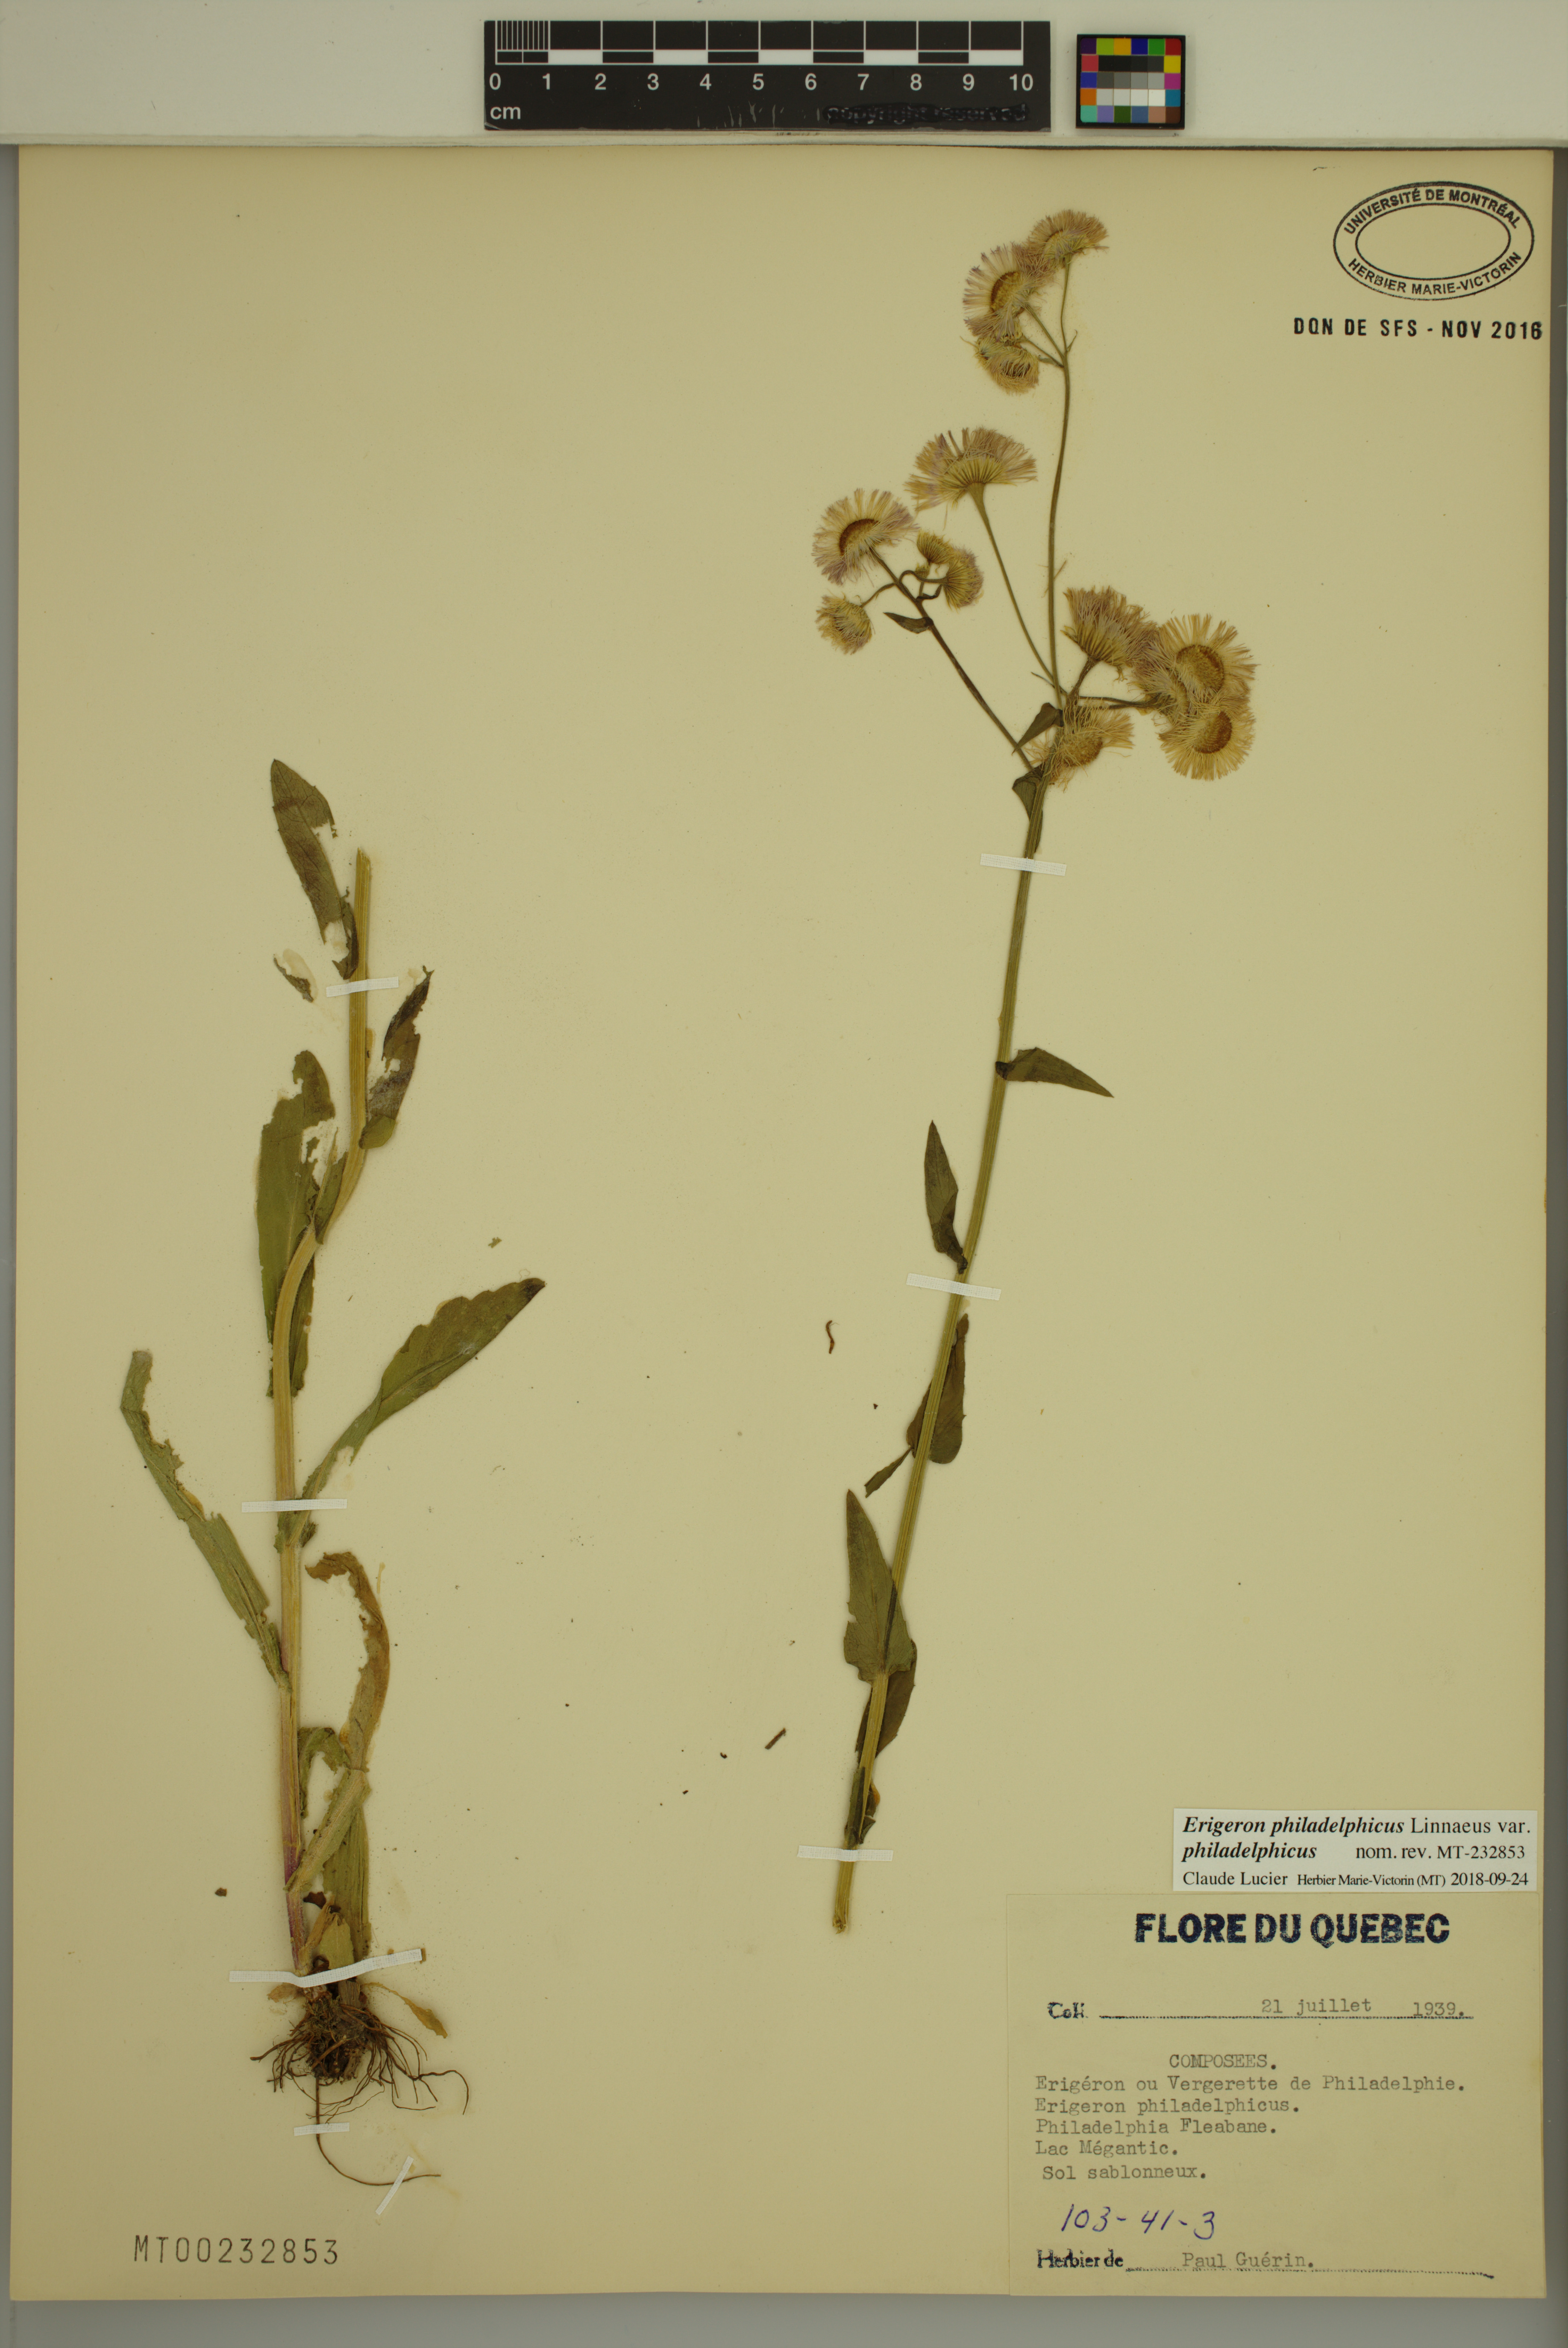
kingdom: Plantae
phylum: Tracheophyta
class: Magnoliopsida
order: Asterales
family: Asteraceae
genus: Erigeron
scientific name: Erigeron philadelphicus
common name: Robin's-plantain
